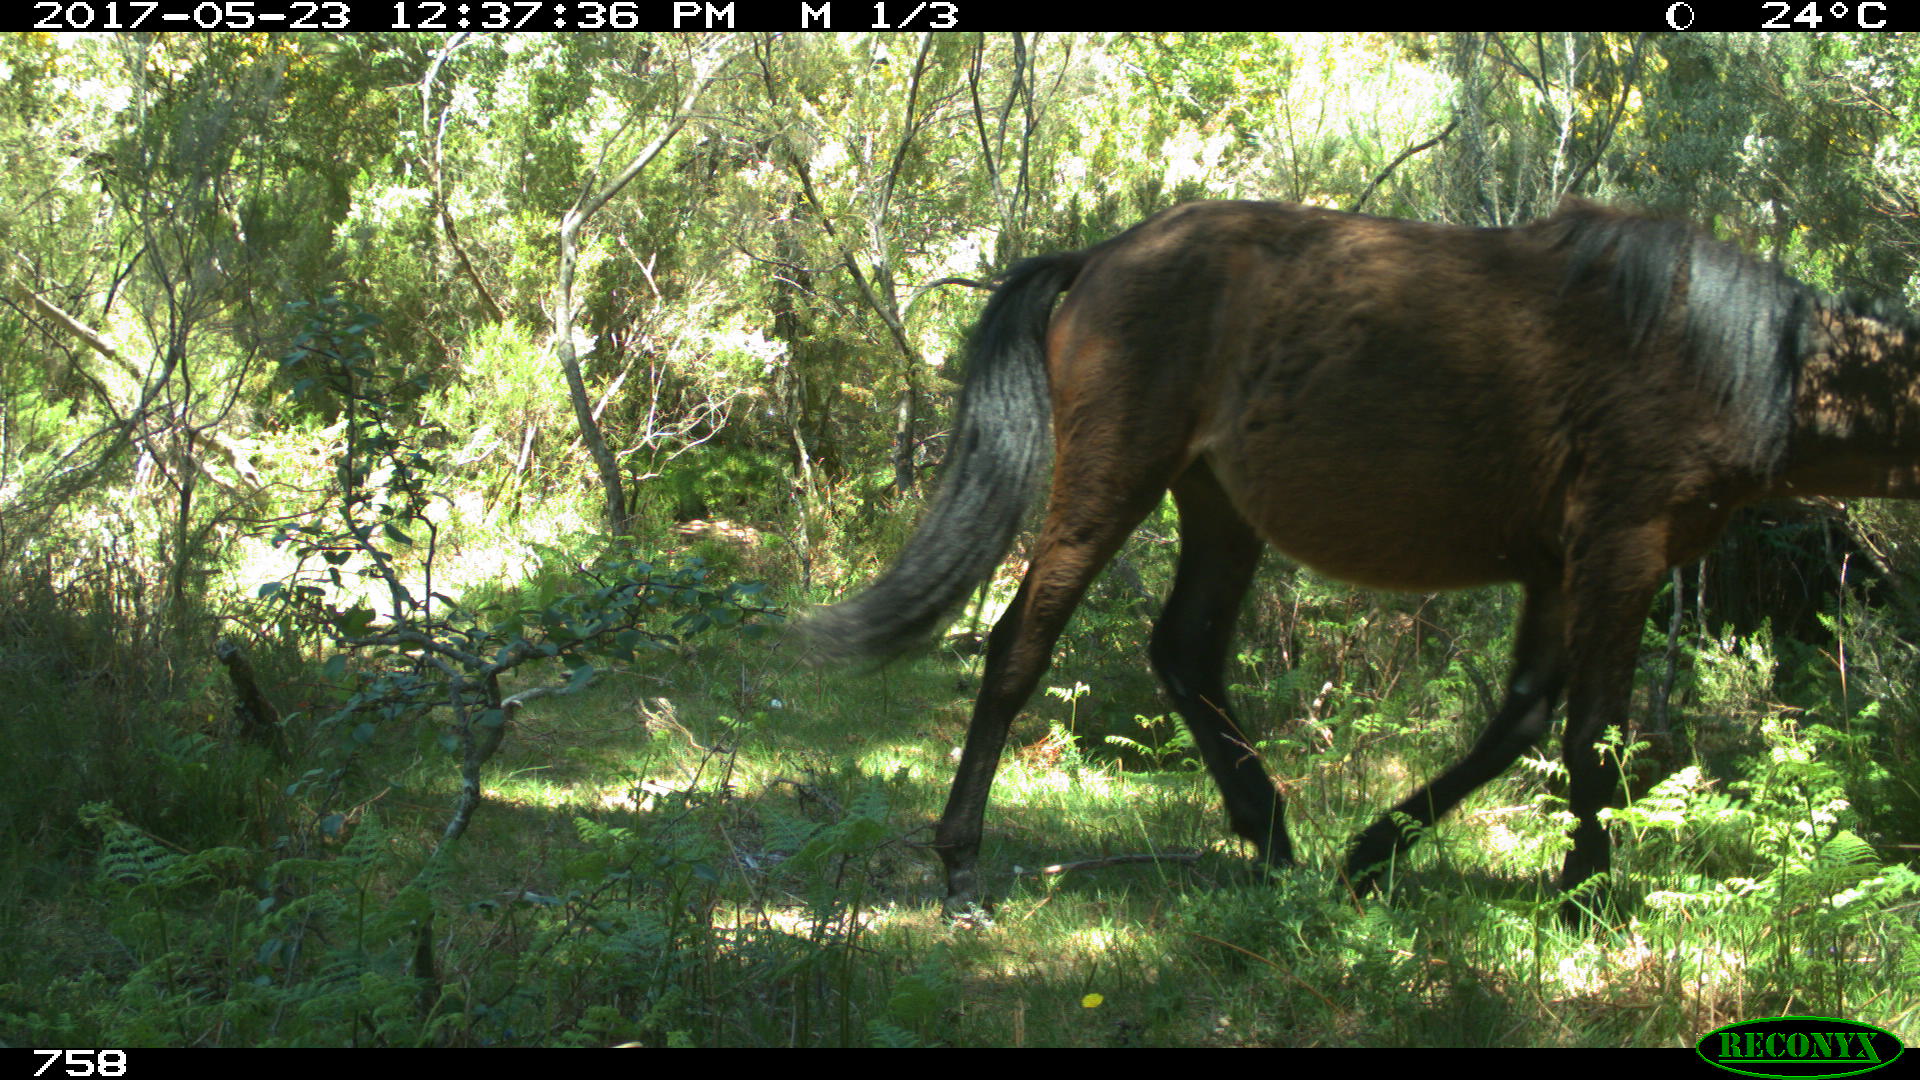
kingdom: Animalia
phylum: Chordata
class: Mammalia
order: Perissodactyla
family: Equidae
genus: Equus
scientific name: Equus caballus
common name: Horse
